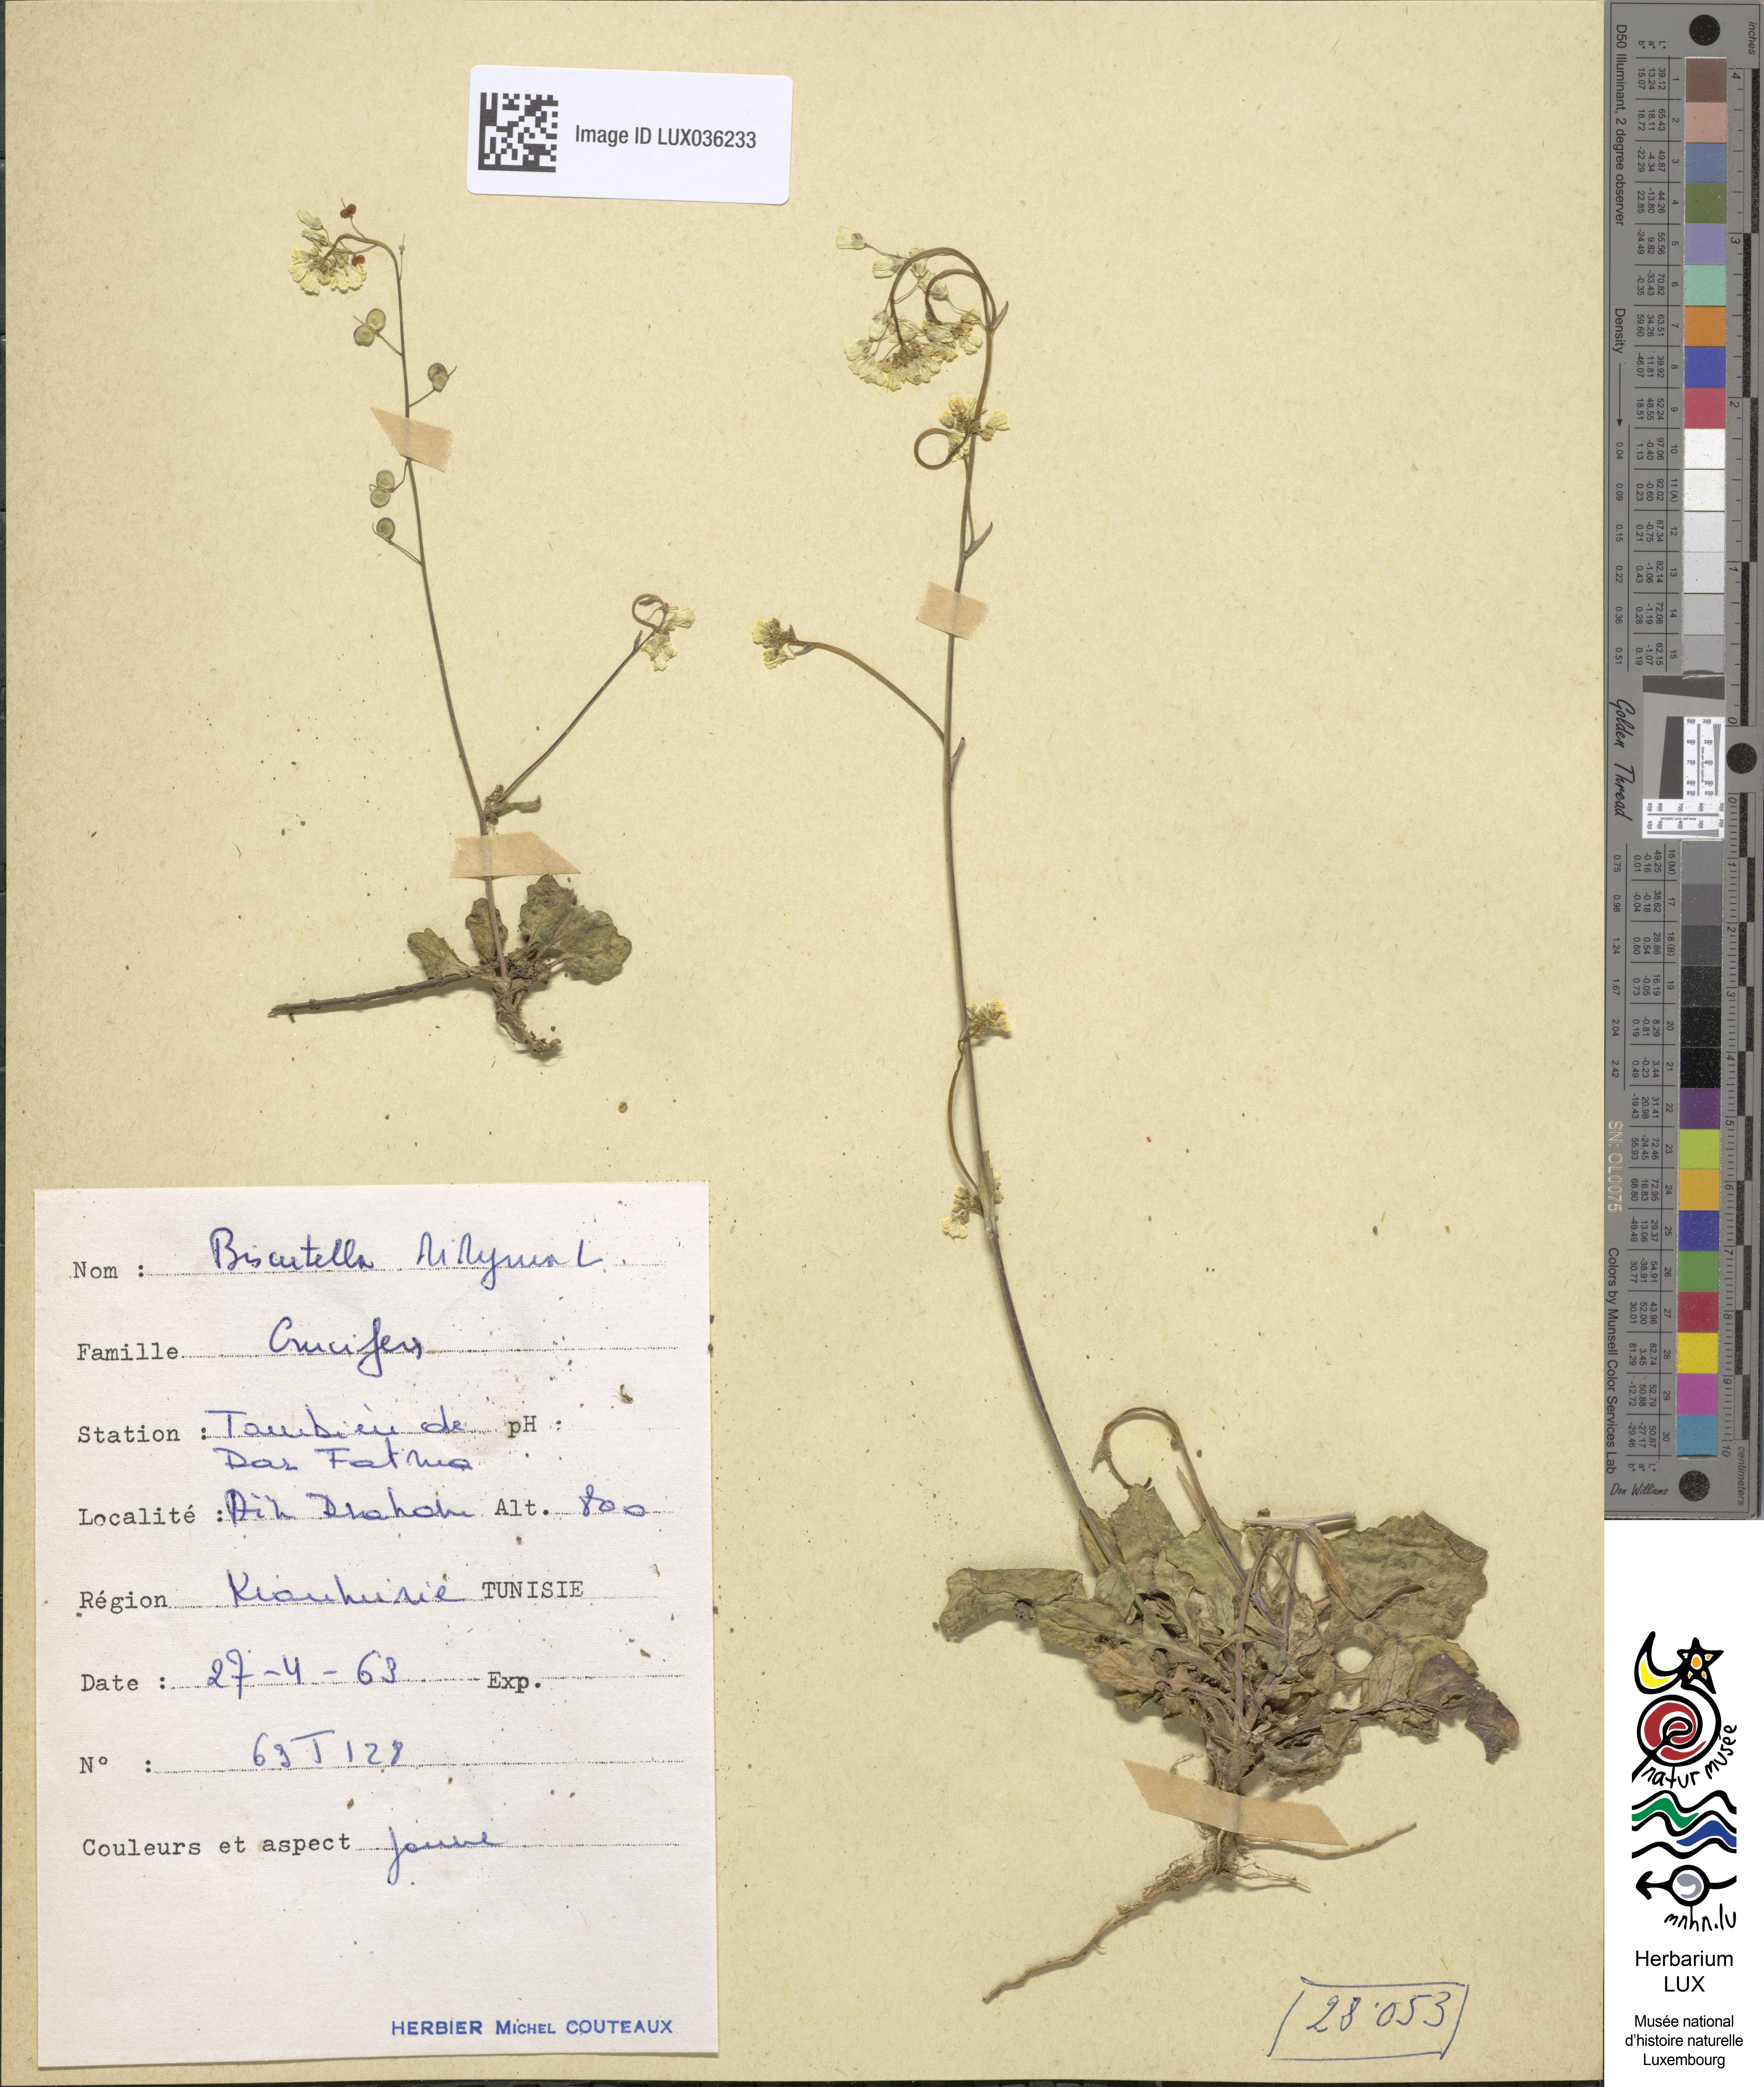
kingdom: Plantae
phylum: Tracheophyta
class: Magnoliopsida
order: Brassicales
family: Brassicaceae
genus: Biscutella
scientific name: Biscutella didyma
